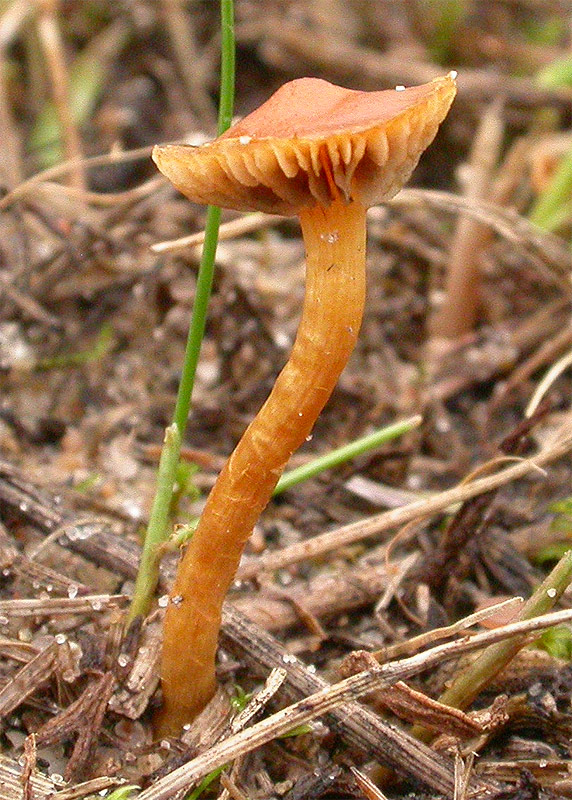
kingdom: Fungi
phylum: Basidiomycota
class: Agaricomycetes
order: Agaricales
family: Strophariaceae
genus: Leratiomyces
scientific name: Leratiomyces laetissimus
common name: mark-bredblad
